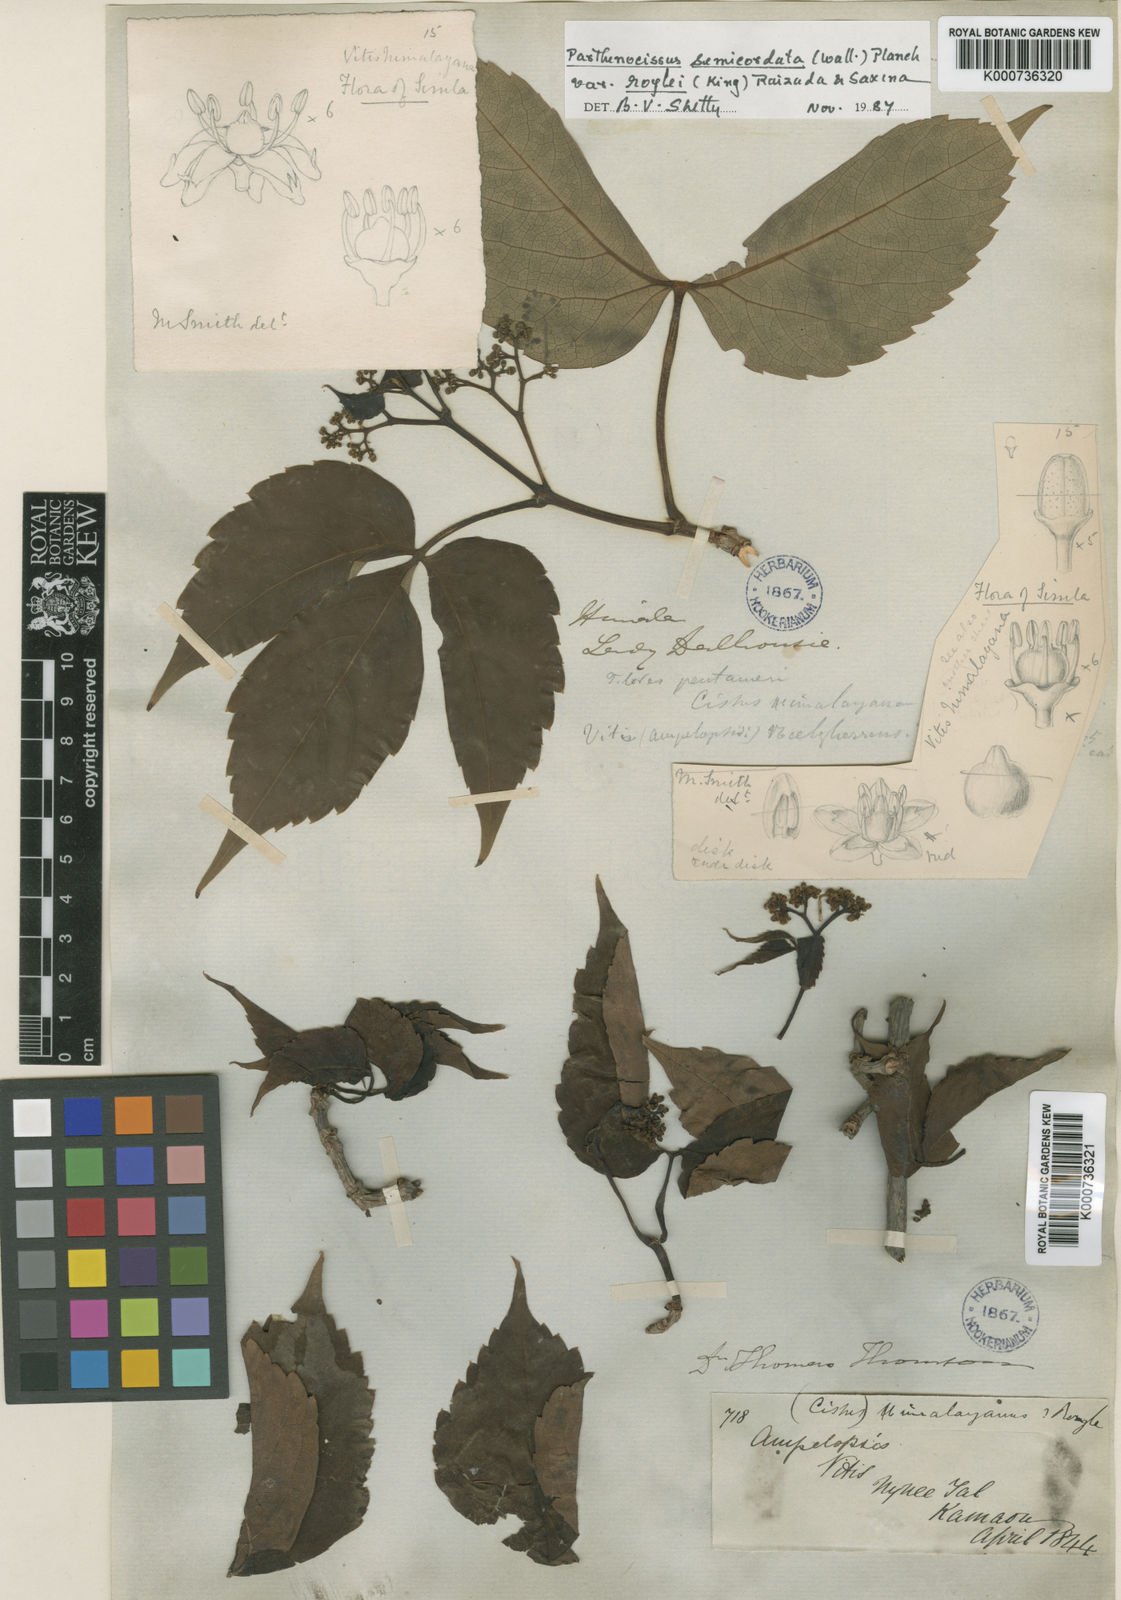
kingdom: Plantae
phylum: Tracheophyta
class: Magnoliopsida
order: Vitales
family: Vitaceae
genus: Parthenocissus
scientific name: Parthenocissus semicordata
